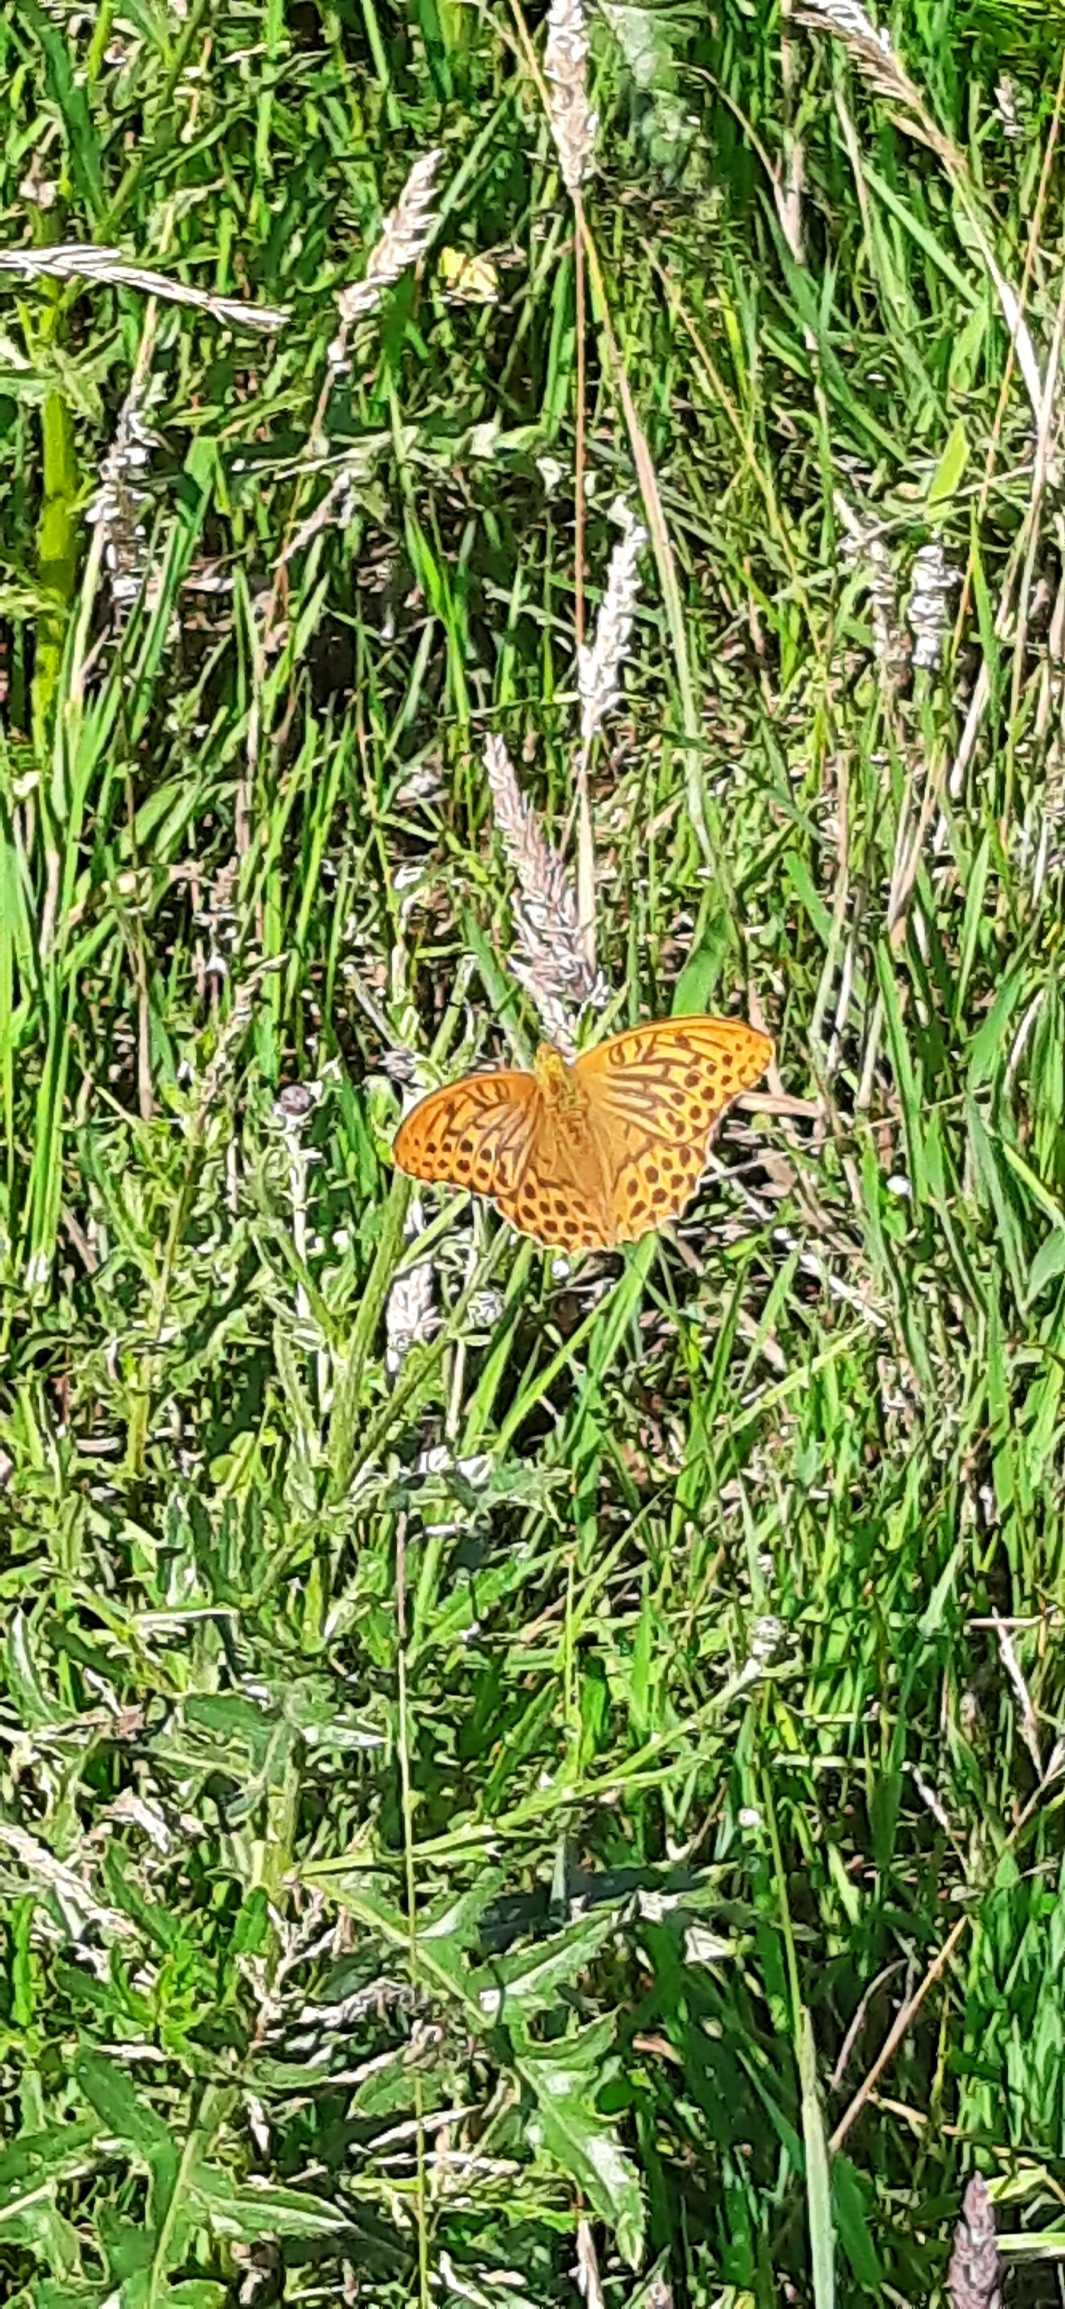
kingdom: Animalia
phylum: Arthropoda
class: Insecta
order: Lepidoptera
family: Nymphalidae
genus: Argynnis
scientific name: Argynnis paphia
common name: Kejserkåbe
